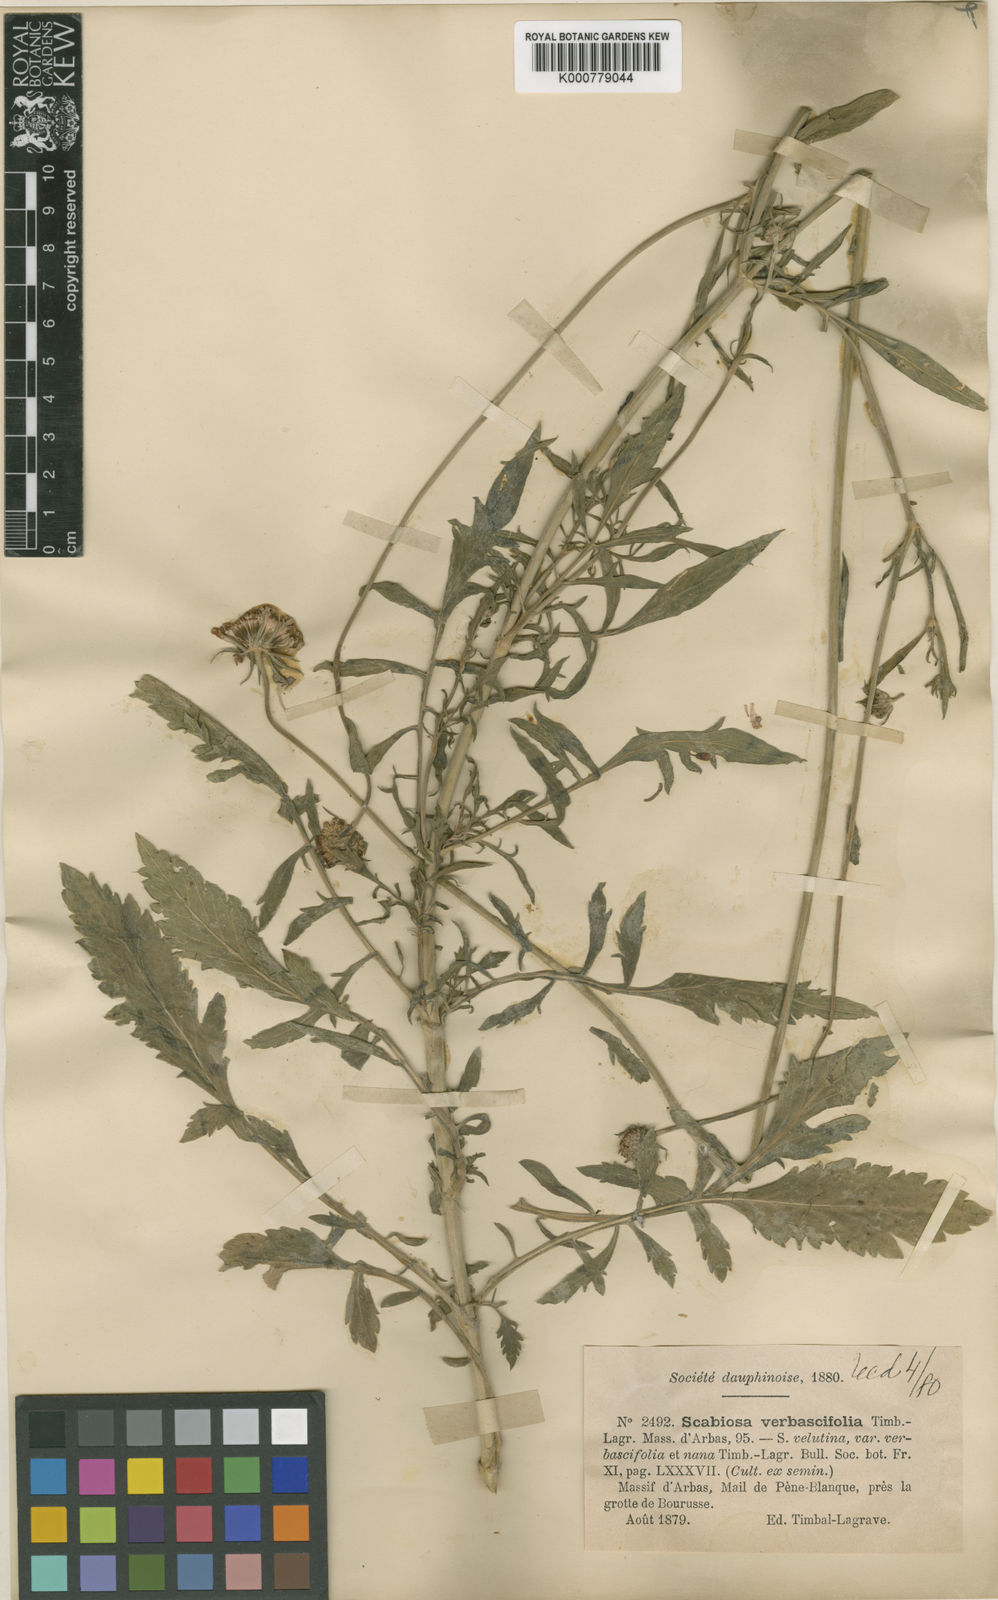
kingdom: Plantae
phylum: Tracheophyta
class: Magnoliopsida
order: Dipsacales
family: Caprifoliaceae
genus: Scabiosa
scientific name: Scabiosa columbaria
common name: Small scabious
